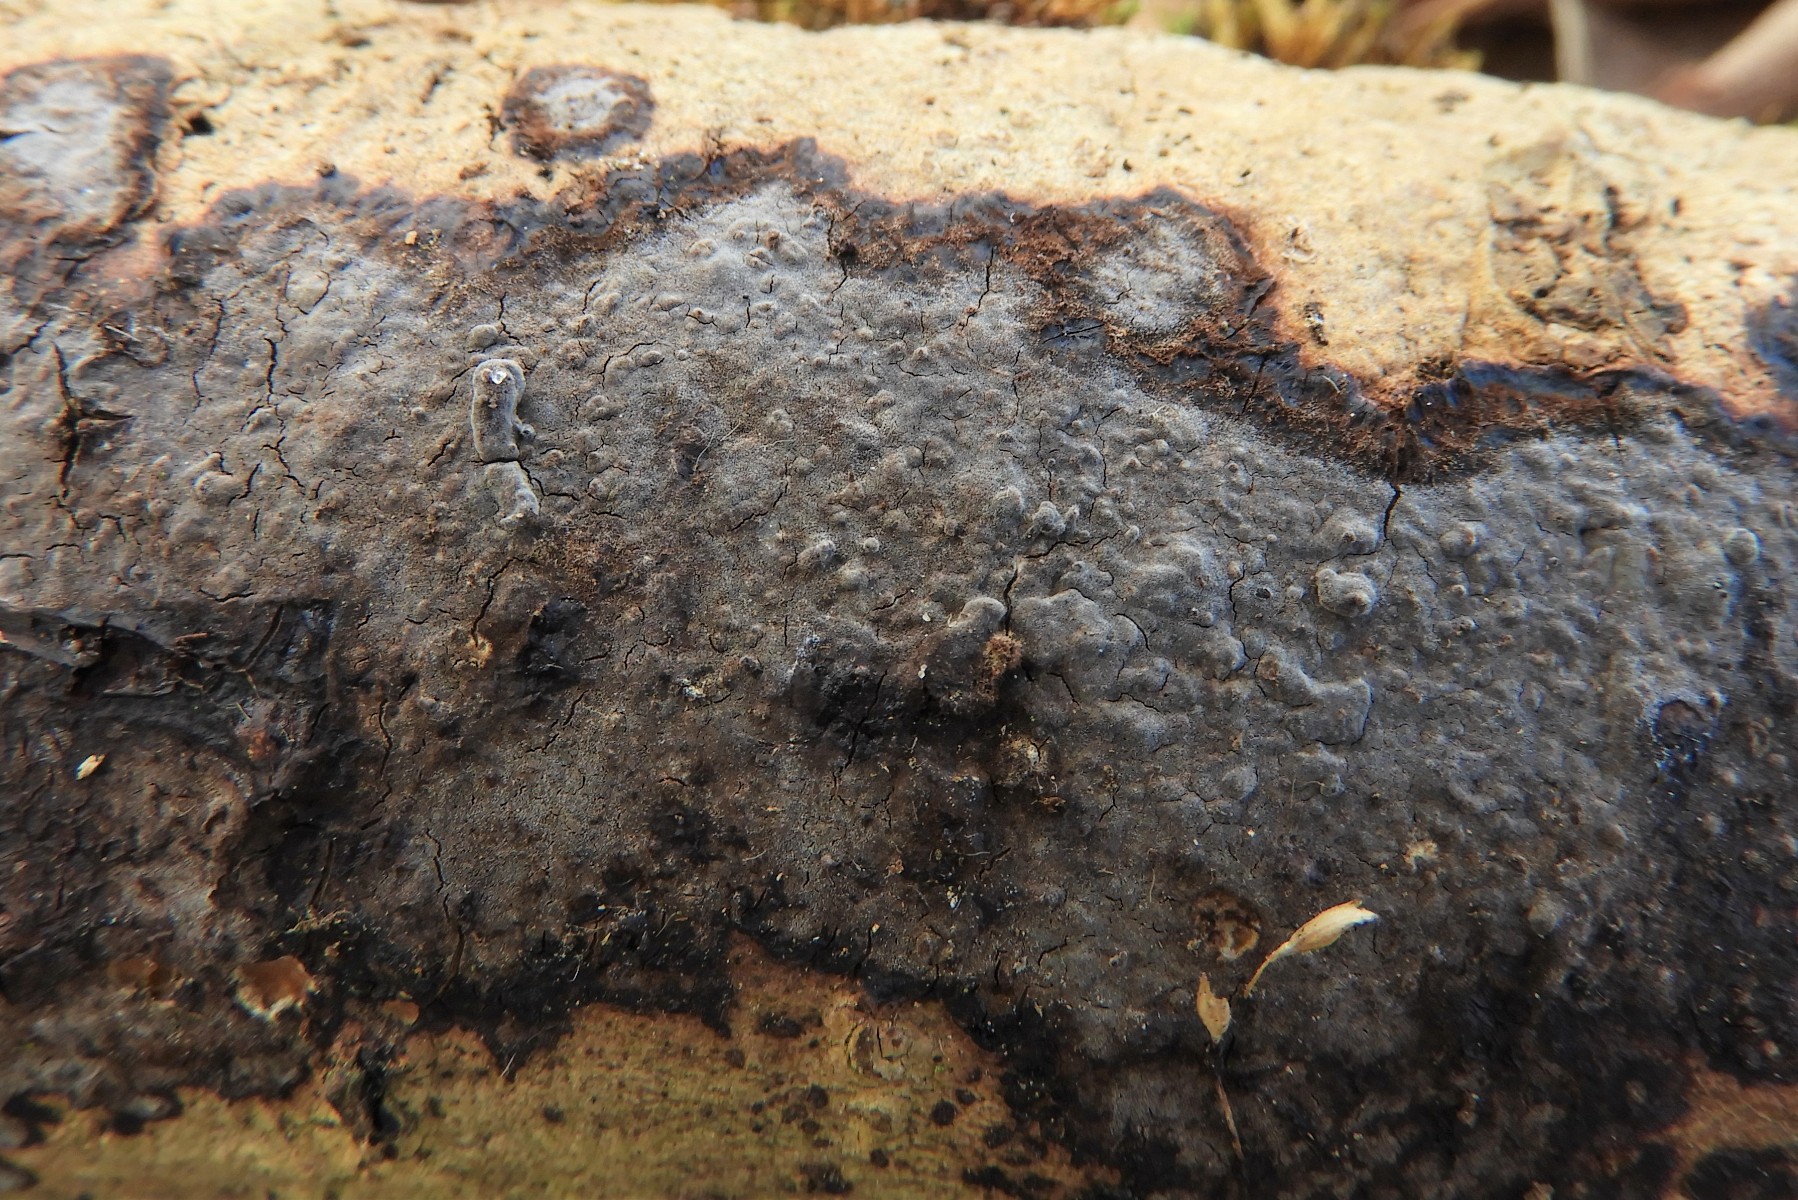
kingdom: Fungi
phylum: Basidiomycota
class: Agaricomycetes
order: Russulales
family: Peniophoraceae
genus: Peniophora
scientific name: Peniophora limitata
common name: mørkrandet voksskind
